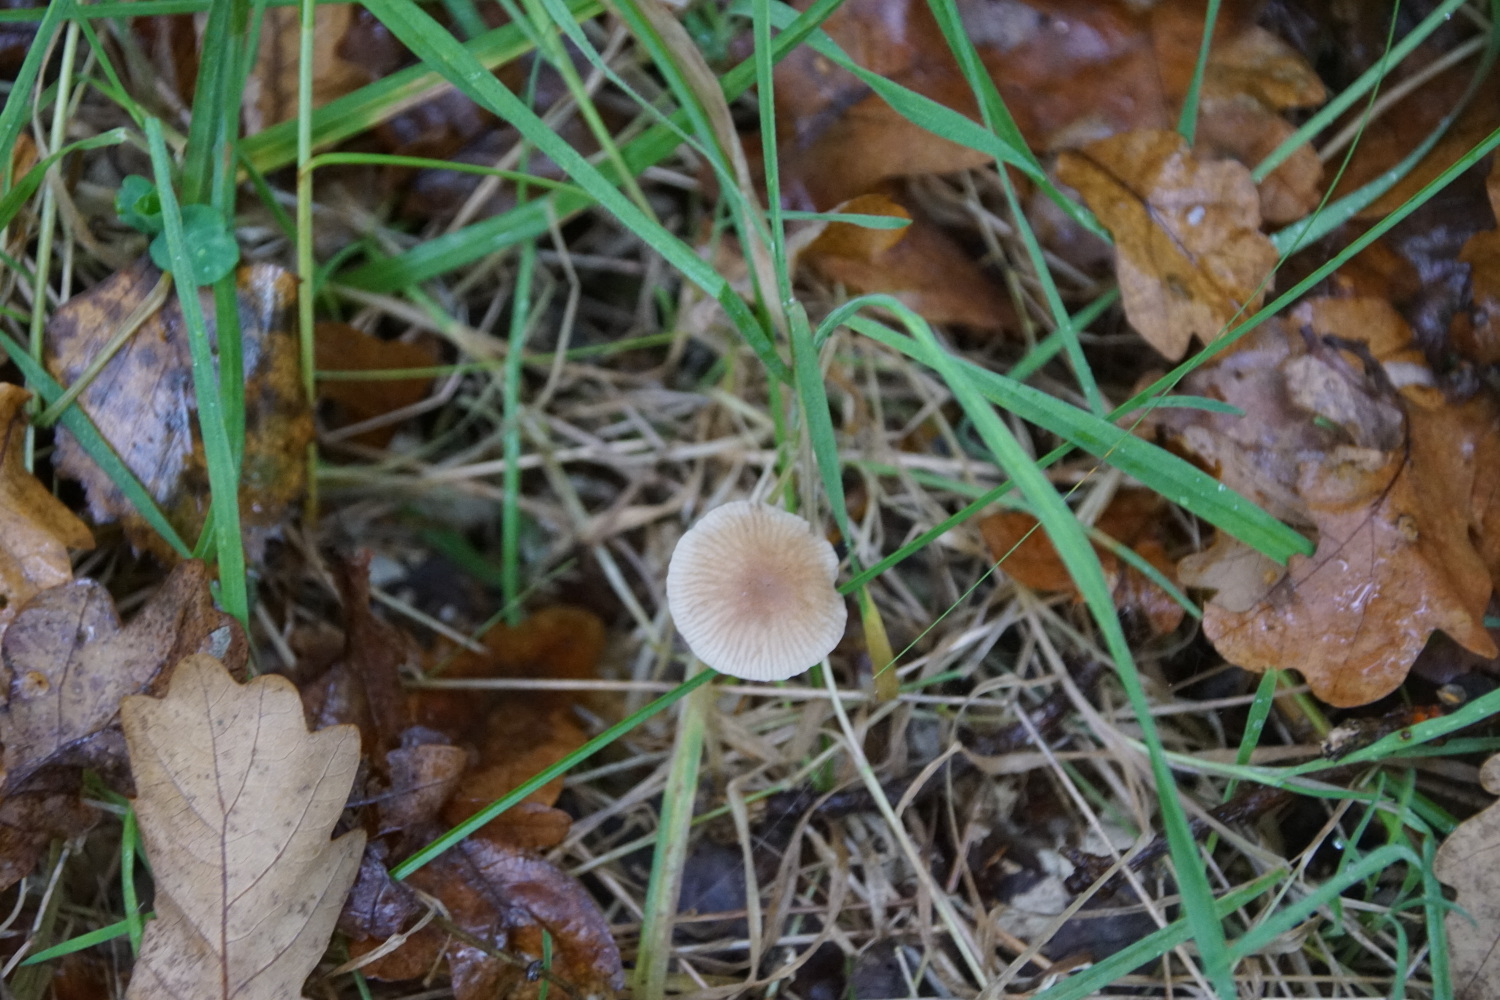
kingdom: Fungi
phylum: Basidiomycota
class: Agaricomycetes
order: Agaricales
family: Omphalotaceae
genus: Mycetinis
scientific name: Mycetinis querceus
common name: ege-løghat
